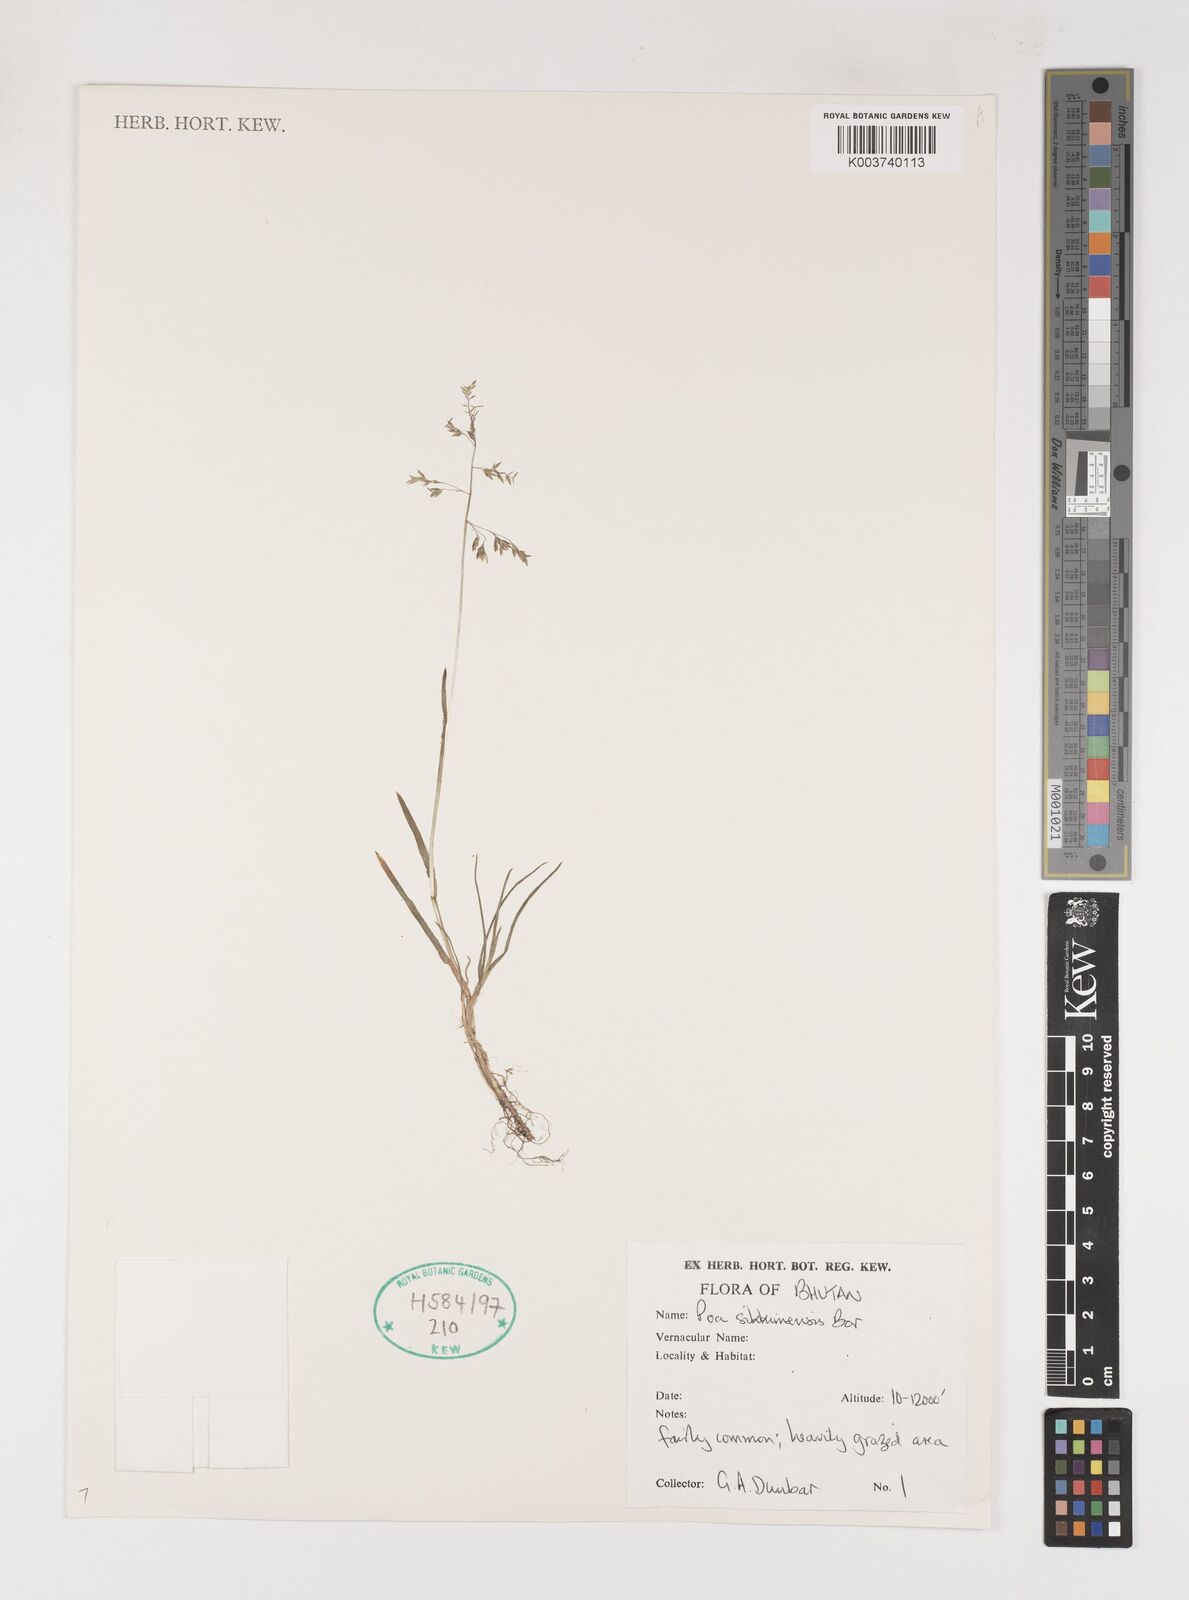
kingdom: Plantae
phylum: Tracheophyta
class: Liliopsida
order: Poales
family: Poaceae
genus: Poa
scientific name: Poa sikkimensis
